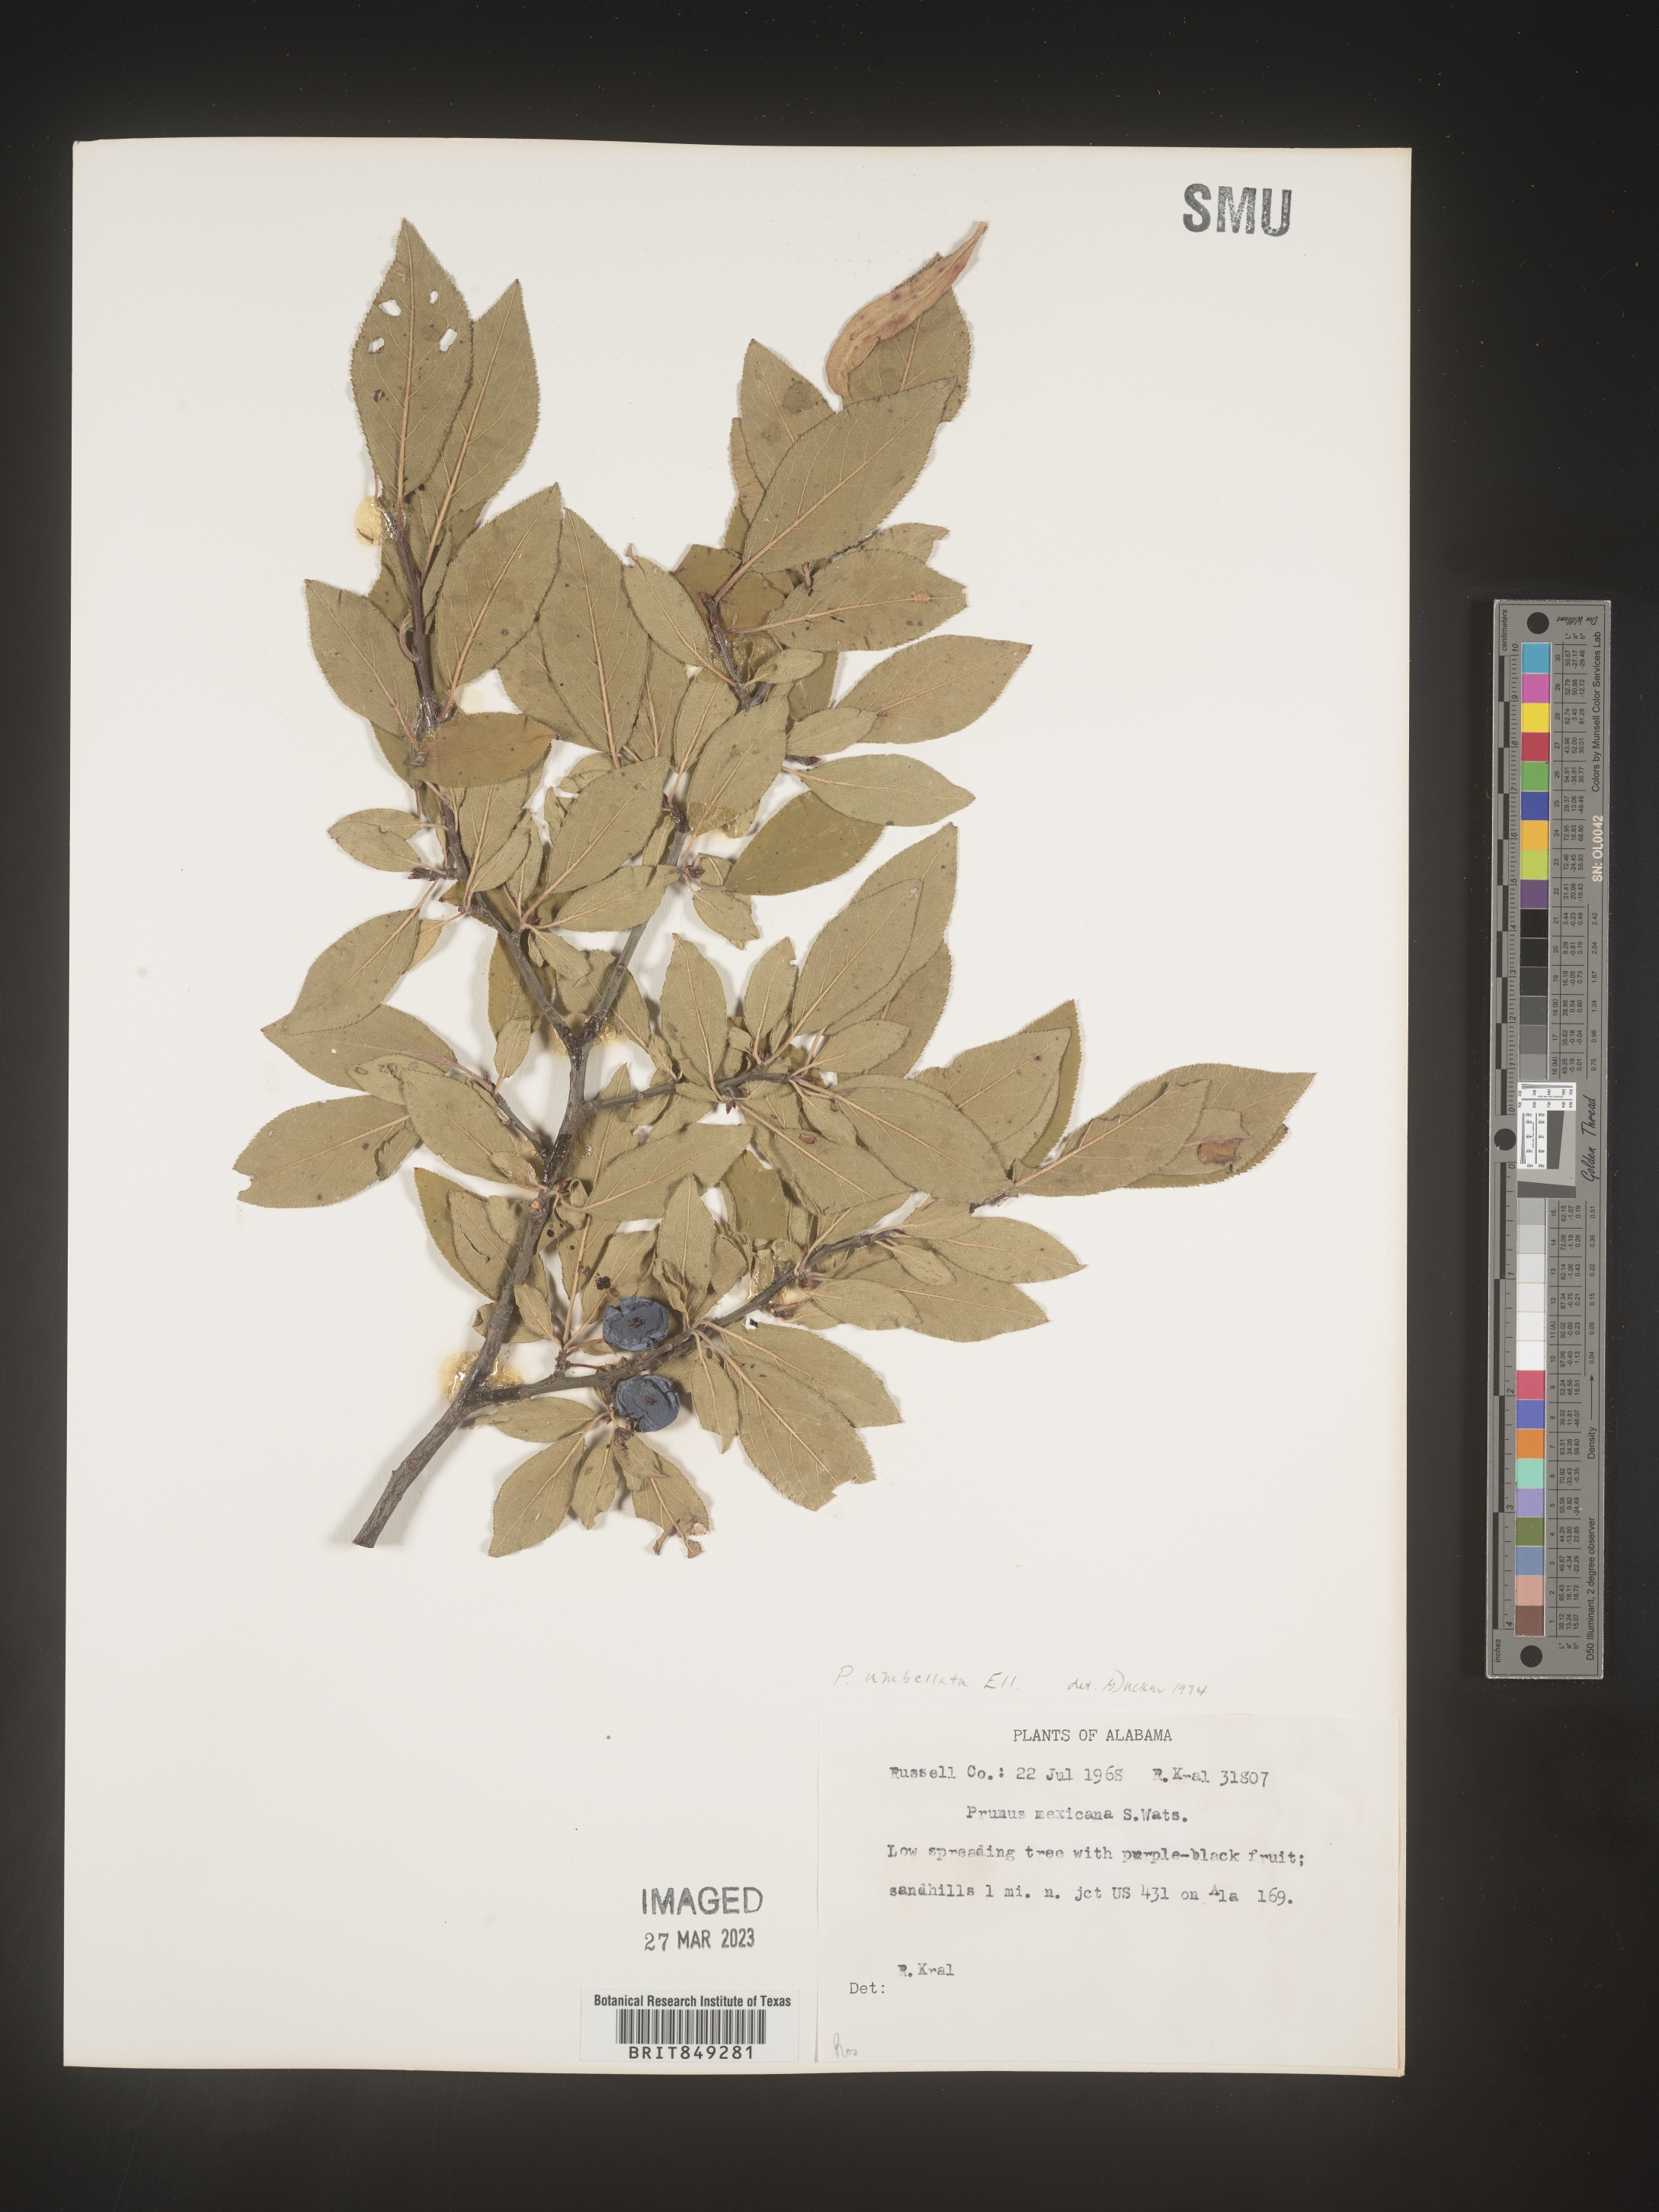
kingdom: Plantae
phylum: Tracheophyta
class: Magnoliopsida
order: Rosales
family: Rosaceae
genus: Prunus
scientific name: Prunus mexicana
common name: Mexican plum
